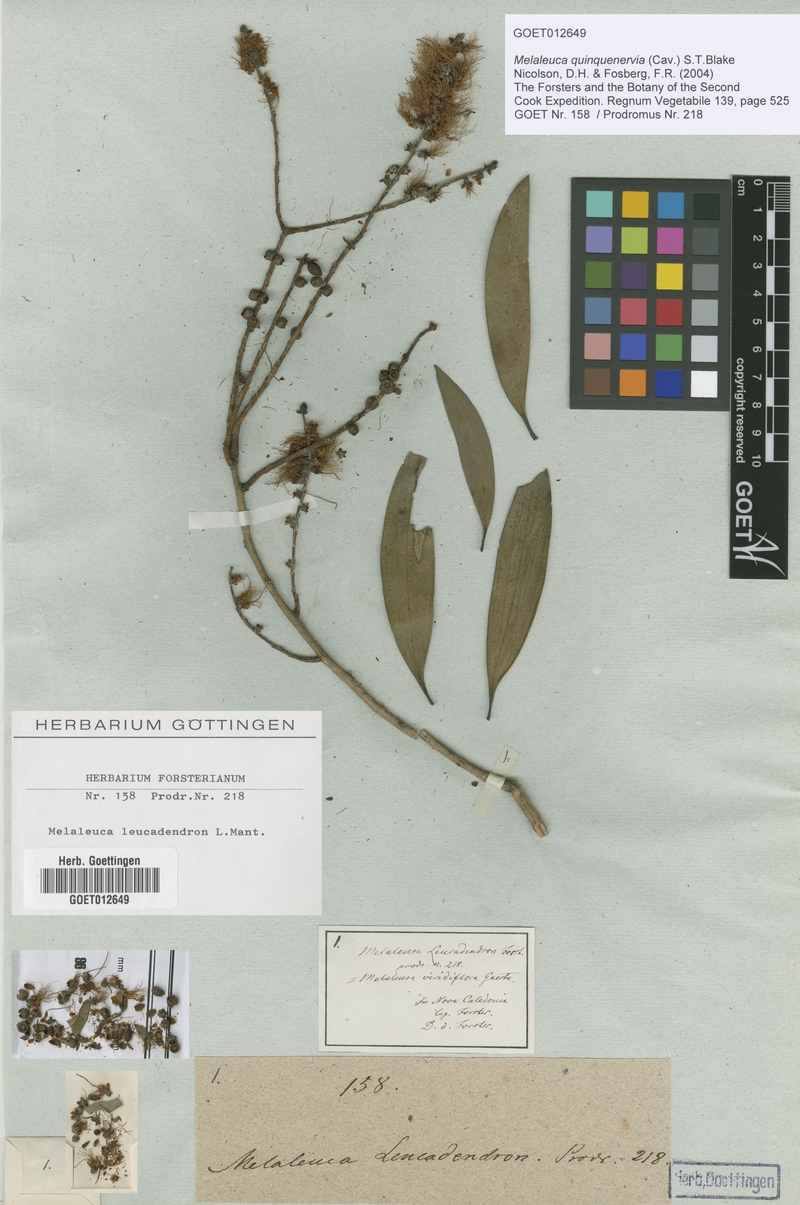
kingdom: Plantae
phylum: Tracheophyta
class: Magnoliopsida
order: Myrtales
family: Myrtaceae
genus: Melaleuca
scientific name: Melaleuca quinquenervia
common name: Punktree
